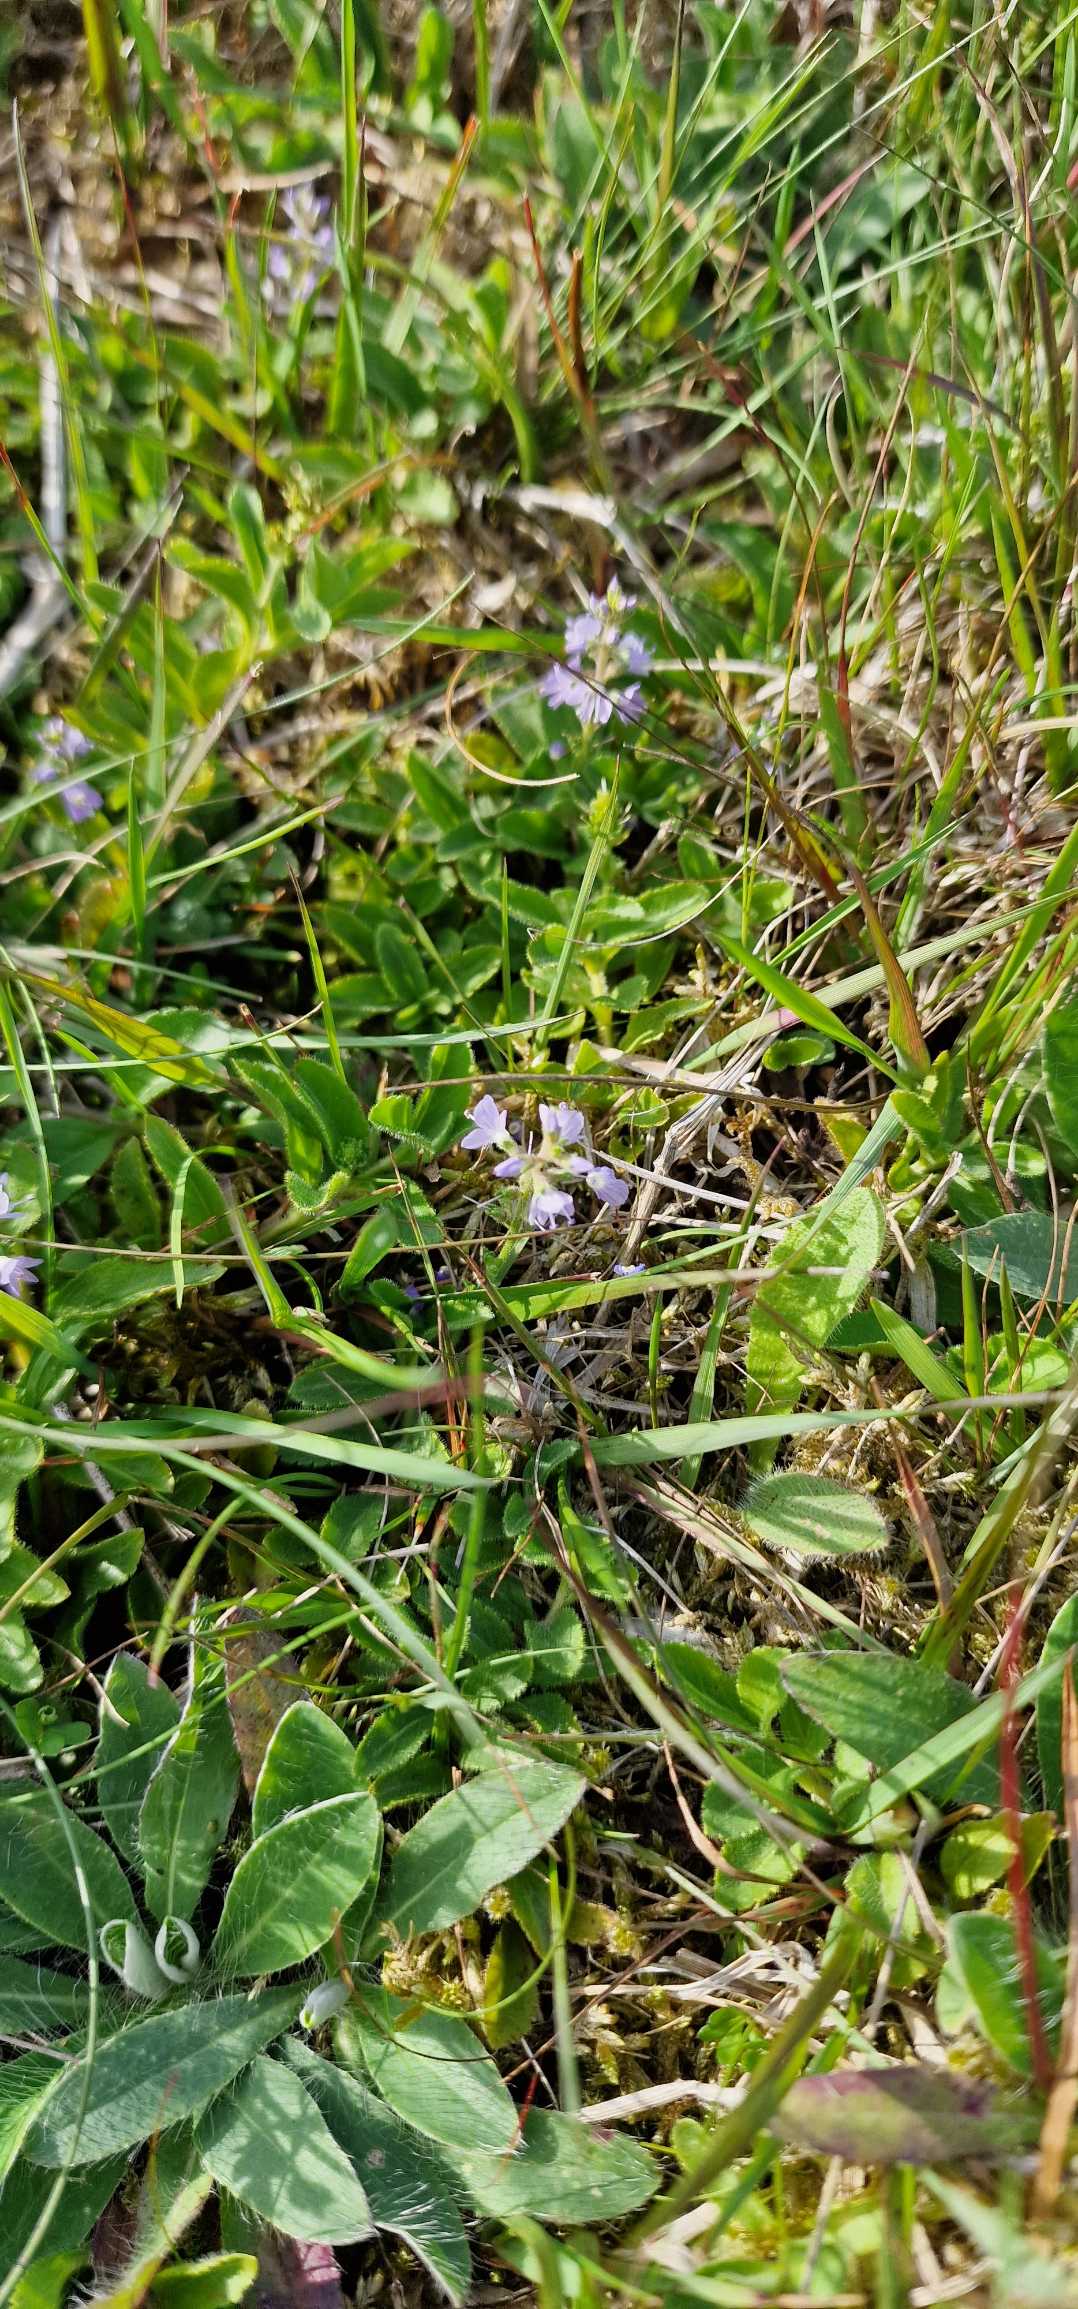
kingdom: Plantae
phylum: Tracheophyta
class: Magnoliopsida
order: Lamiales
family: Plantaginaceae
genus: Veronica
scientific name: Veronica officinalis
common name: Læge-ærenpris
